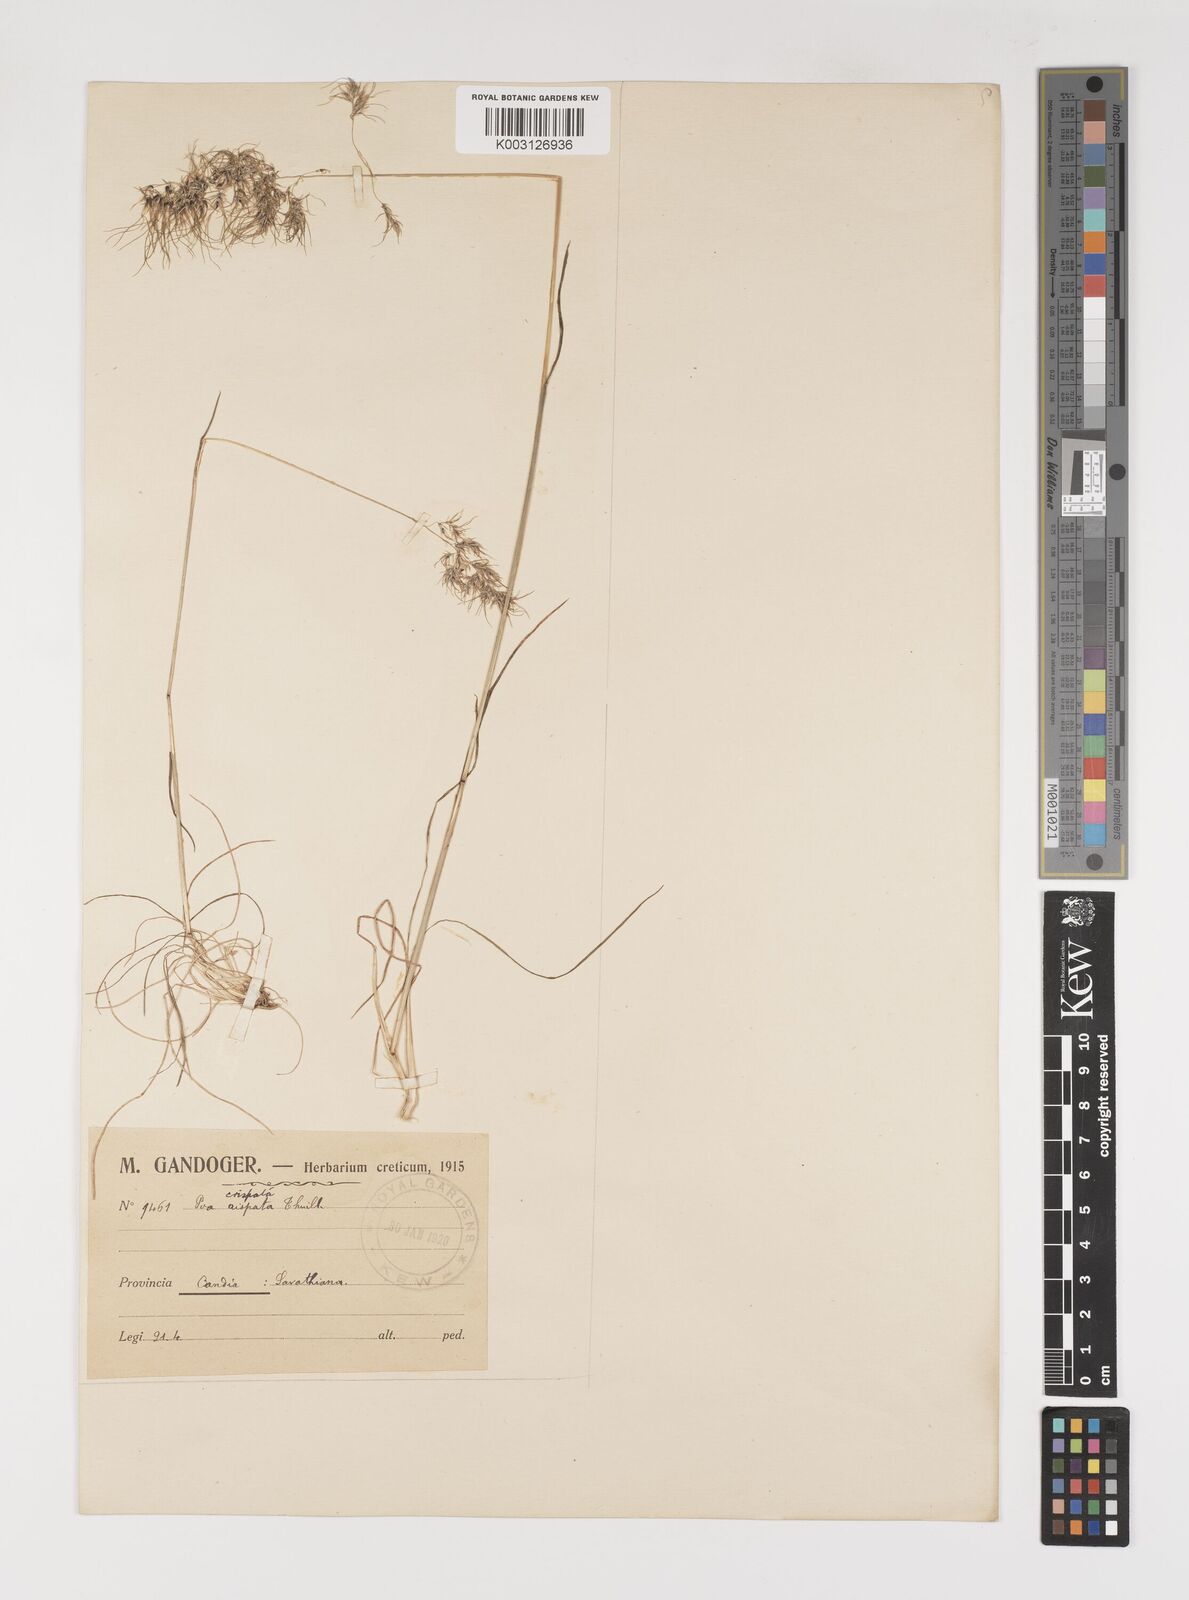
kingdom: Plantae
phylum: Tracheophyta
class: Liliopsida
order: Poales
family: Poaceae
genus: Poa
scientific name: Poa bulbosa
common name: Bulbous bluegrass
